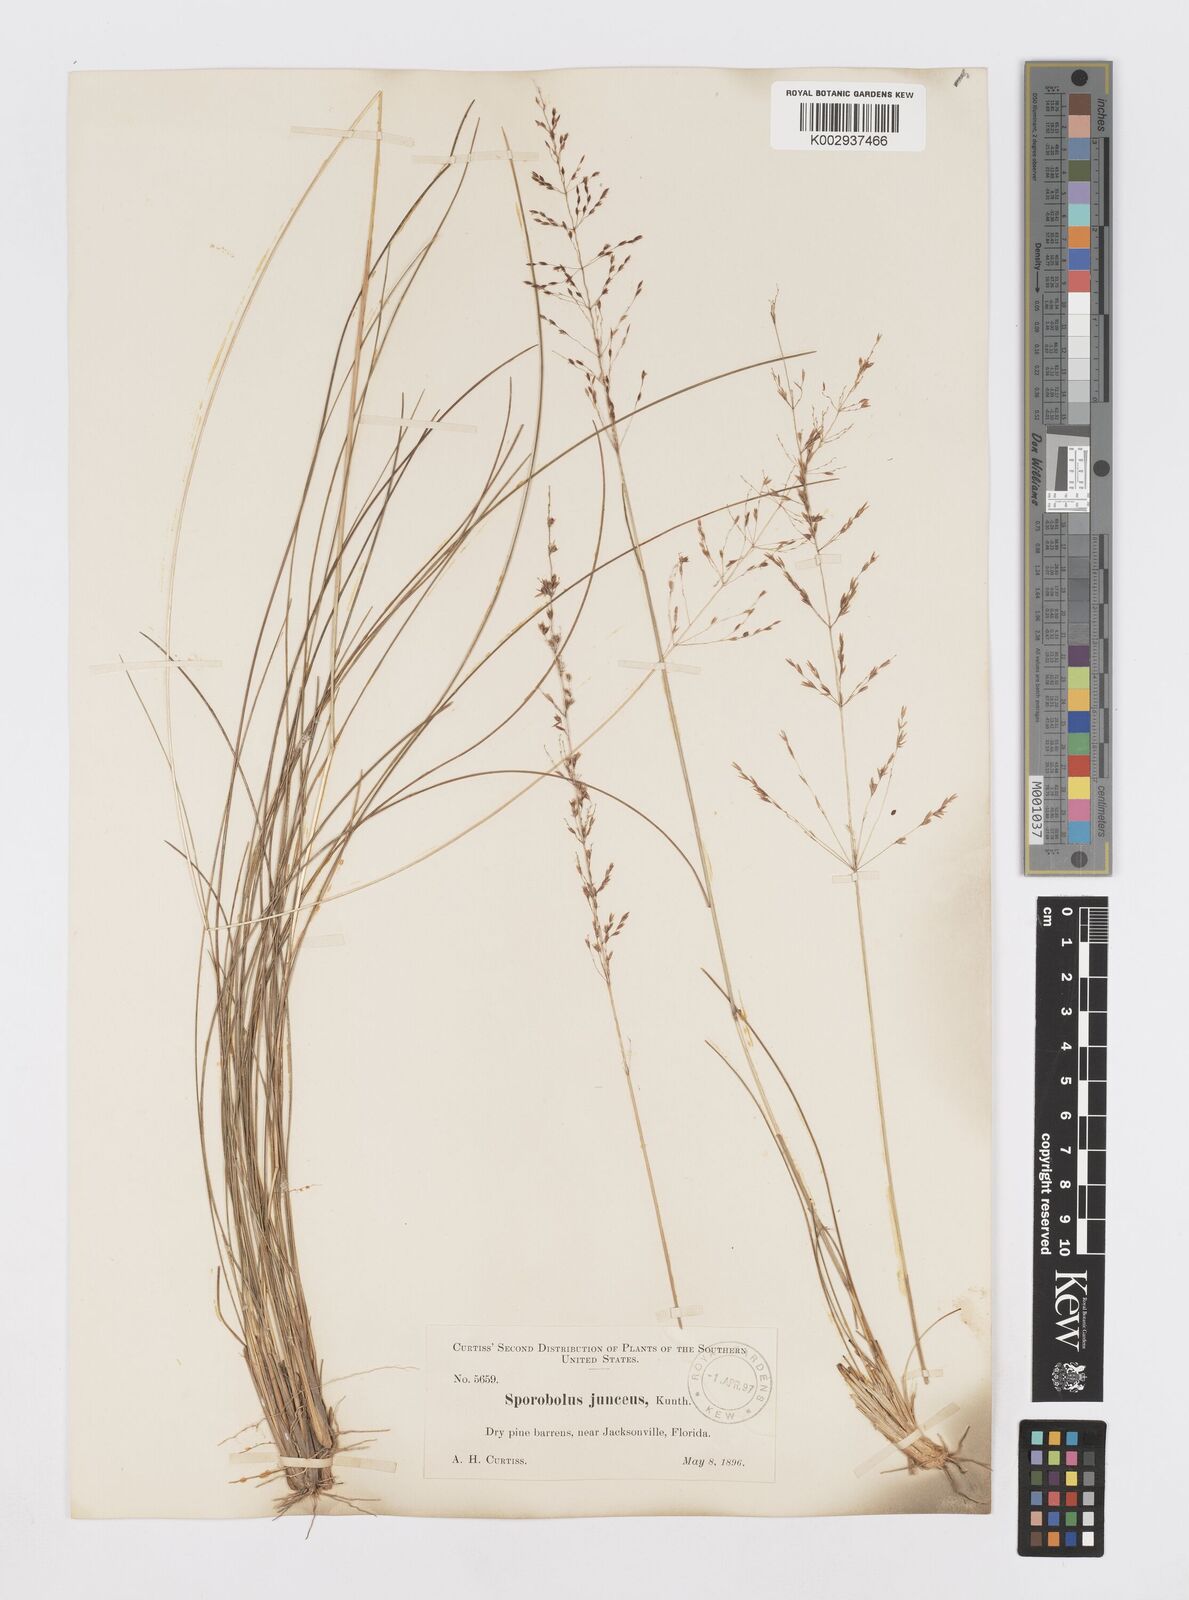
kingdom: Plantae
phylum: Tracheophyta
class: Liliopsida
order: Poales
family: Poaceae
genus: Sporobolus
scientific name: Sporobolus junceus
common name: Lizard grass
